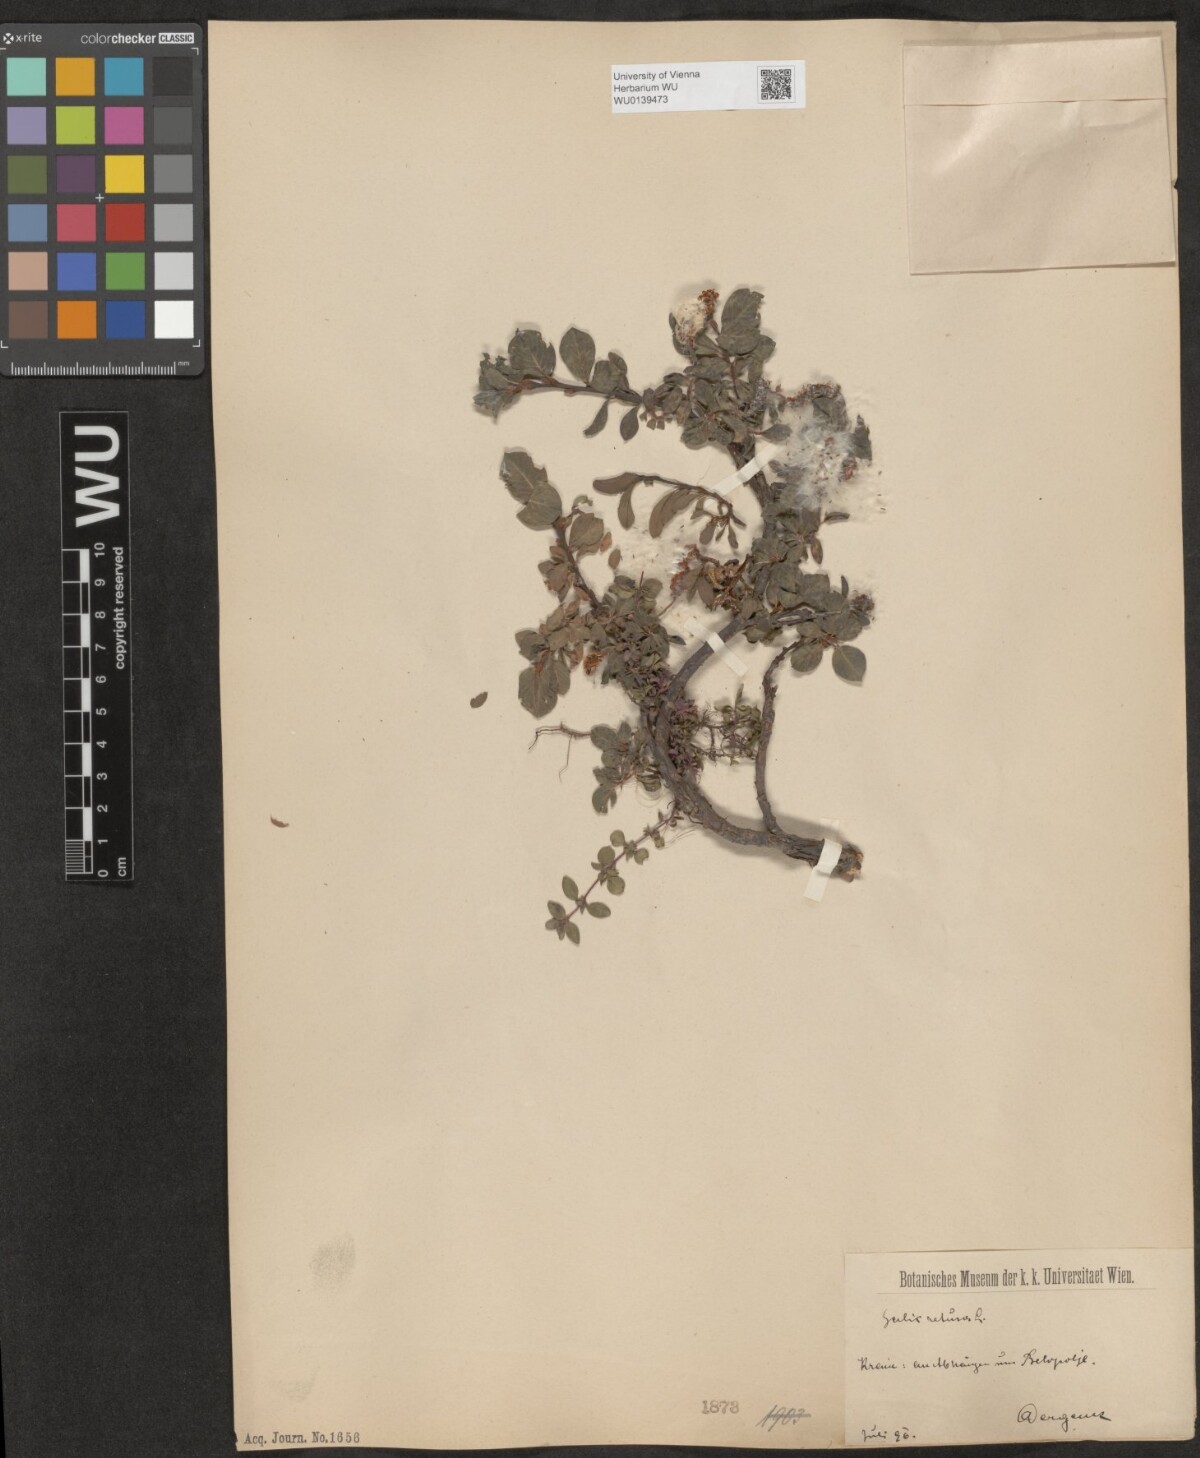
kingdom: Plantae
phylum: Tracheophyta
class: Magnoliopsida
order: Malpighiales
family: Salicaceae
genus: Salix
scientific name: Salix retusa
